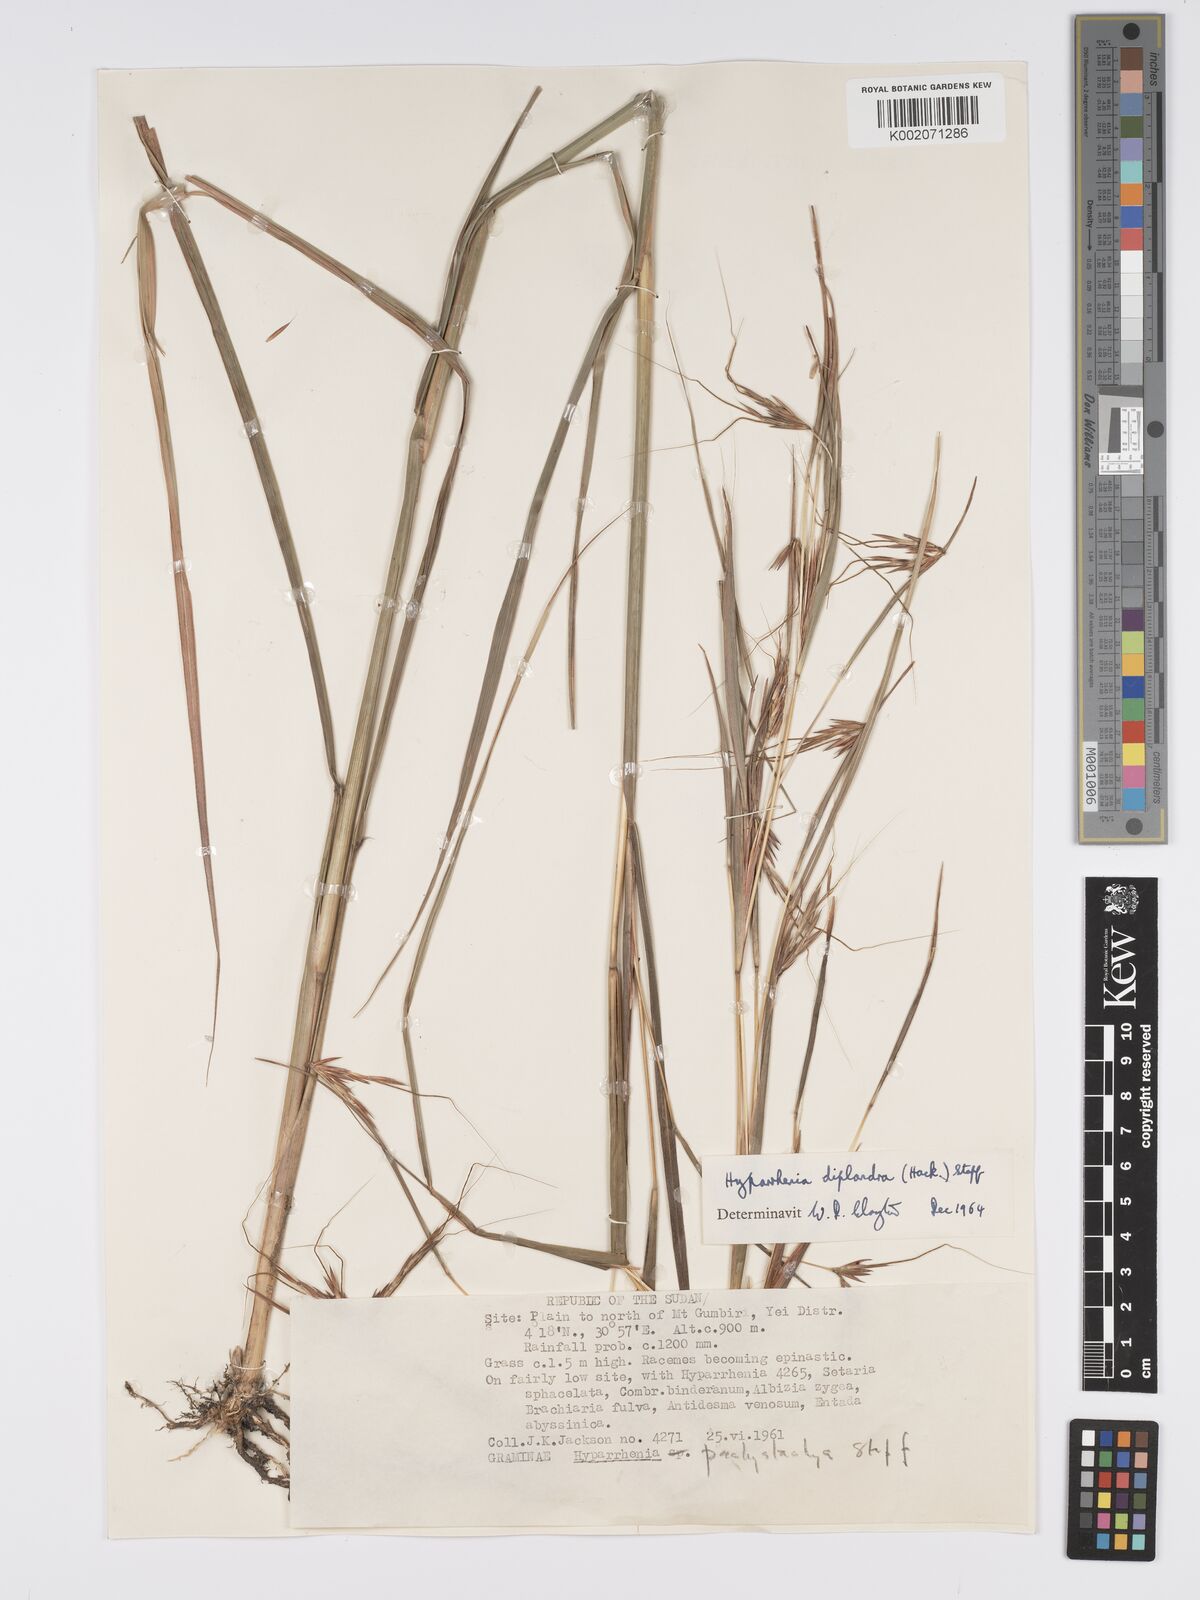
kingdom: Plantae
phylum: Tracheophyta
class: Liliopsida
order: Poales
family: Poaceae
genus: Hyparrhenia
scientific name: Hyparrhenia diplandra
